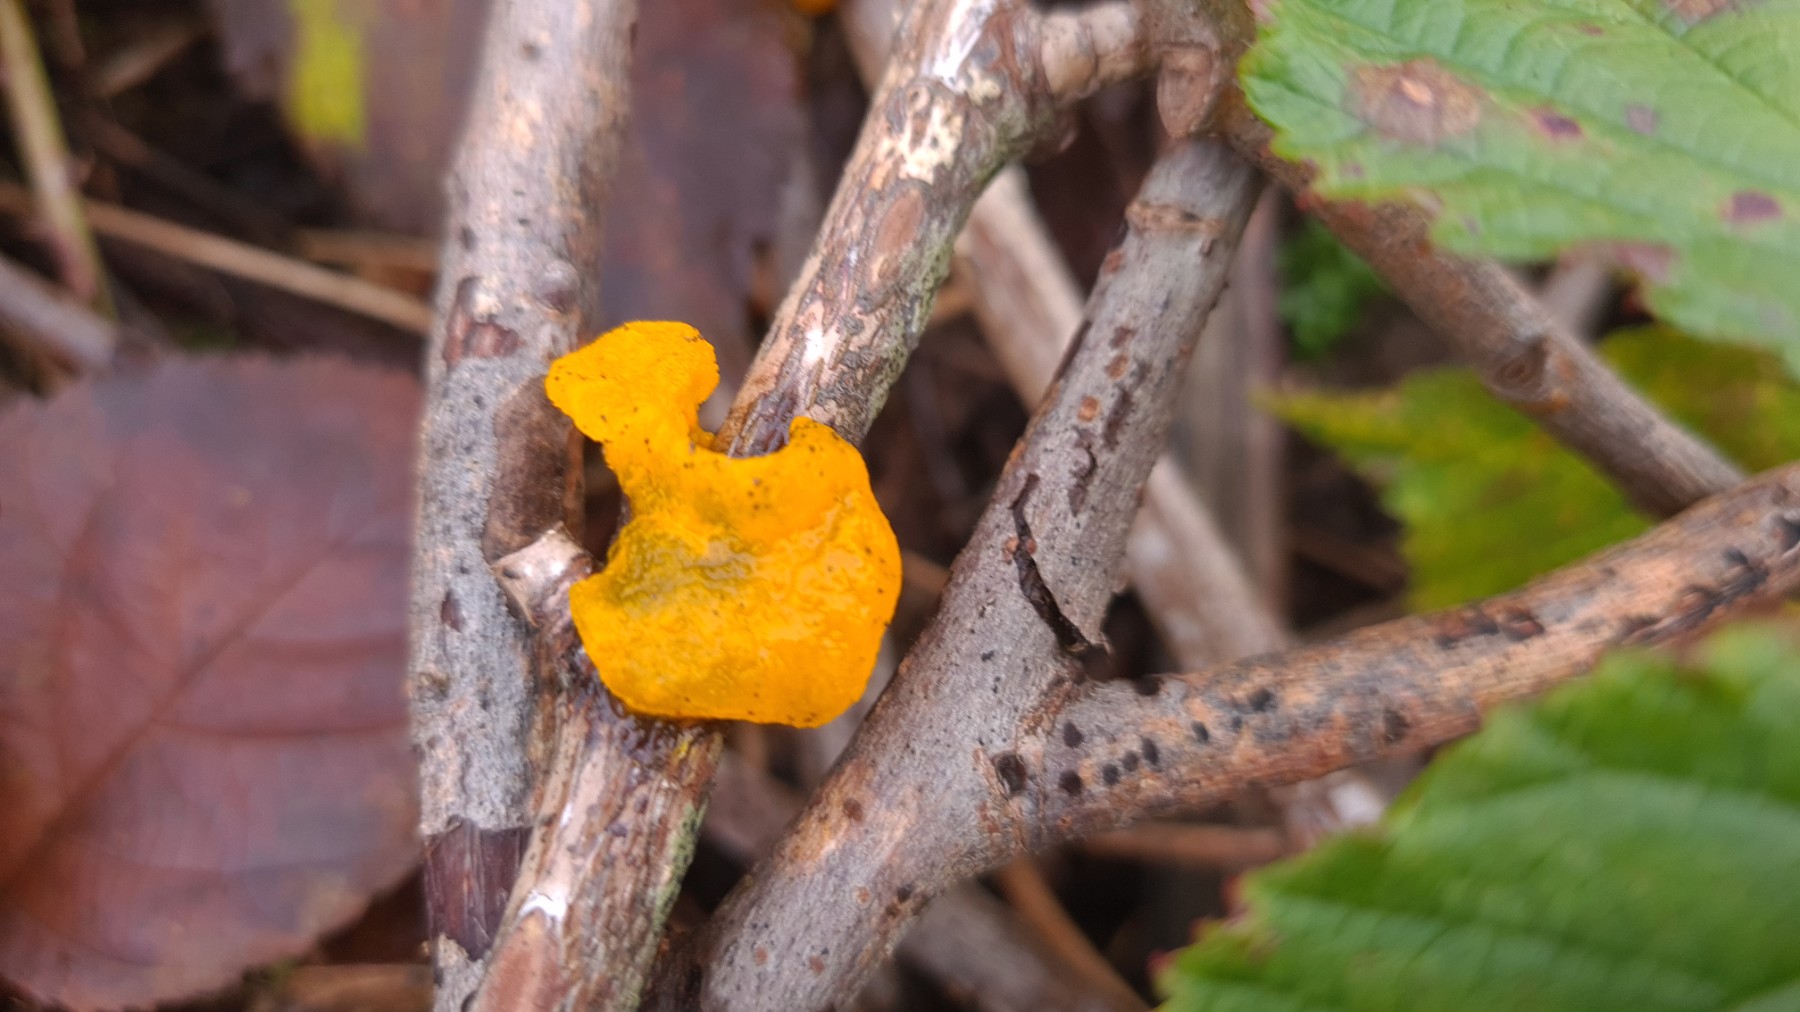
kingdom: Fungi
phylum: Basidiomycota
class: Tremellomycetes
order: Tremellales
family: Tremellaceae
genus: Tremella
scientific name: Tremella mesenterica
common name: gul bævresvamp
